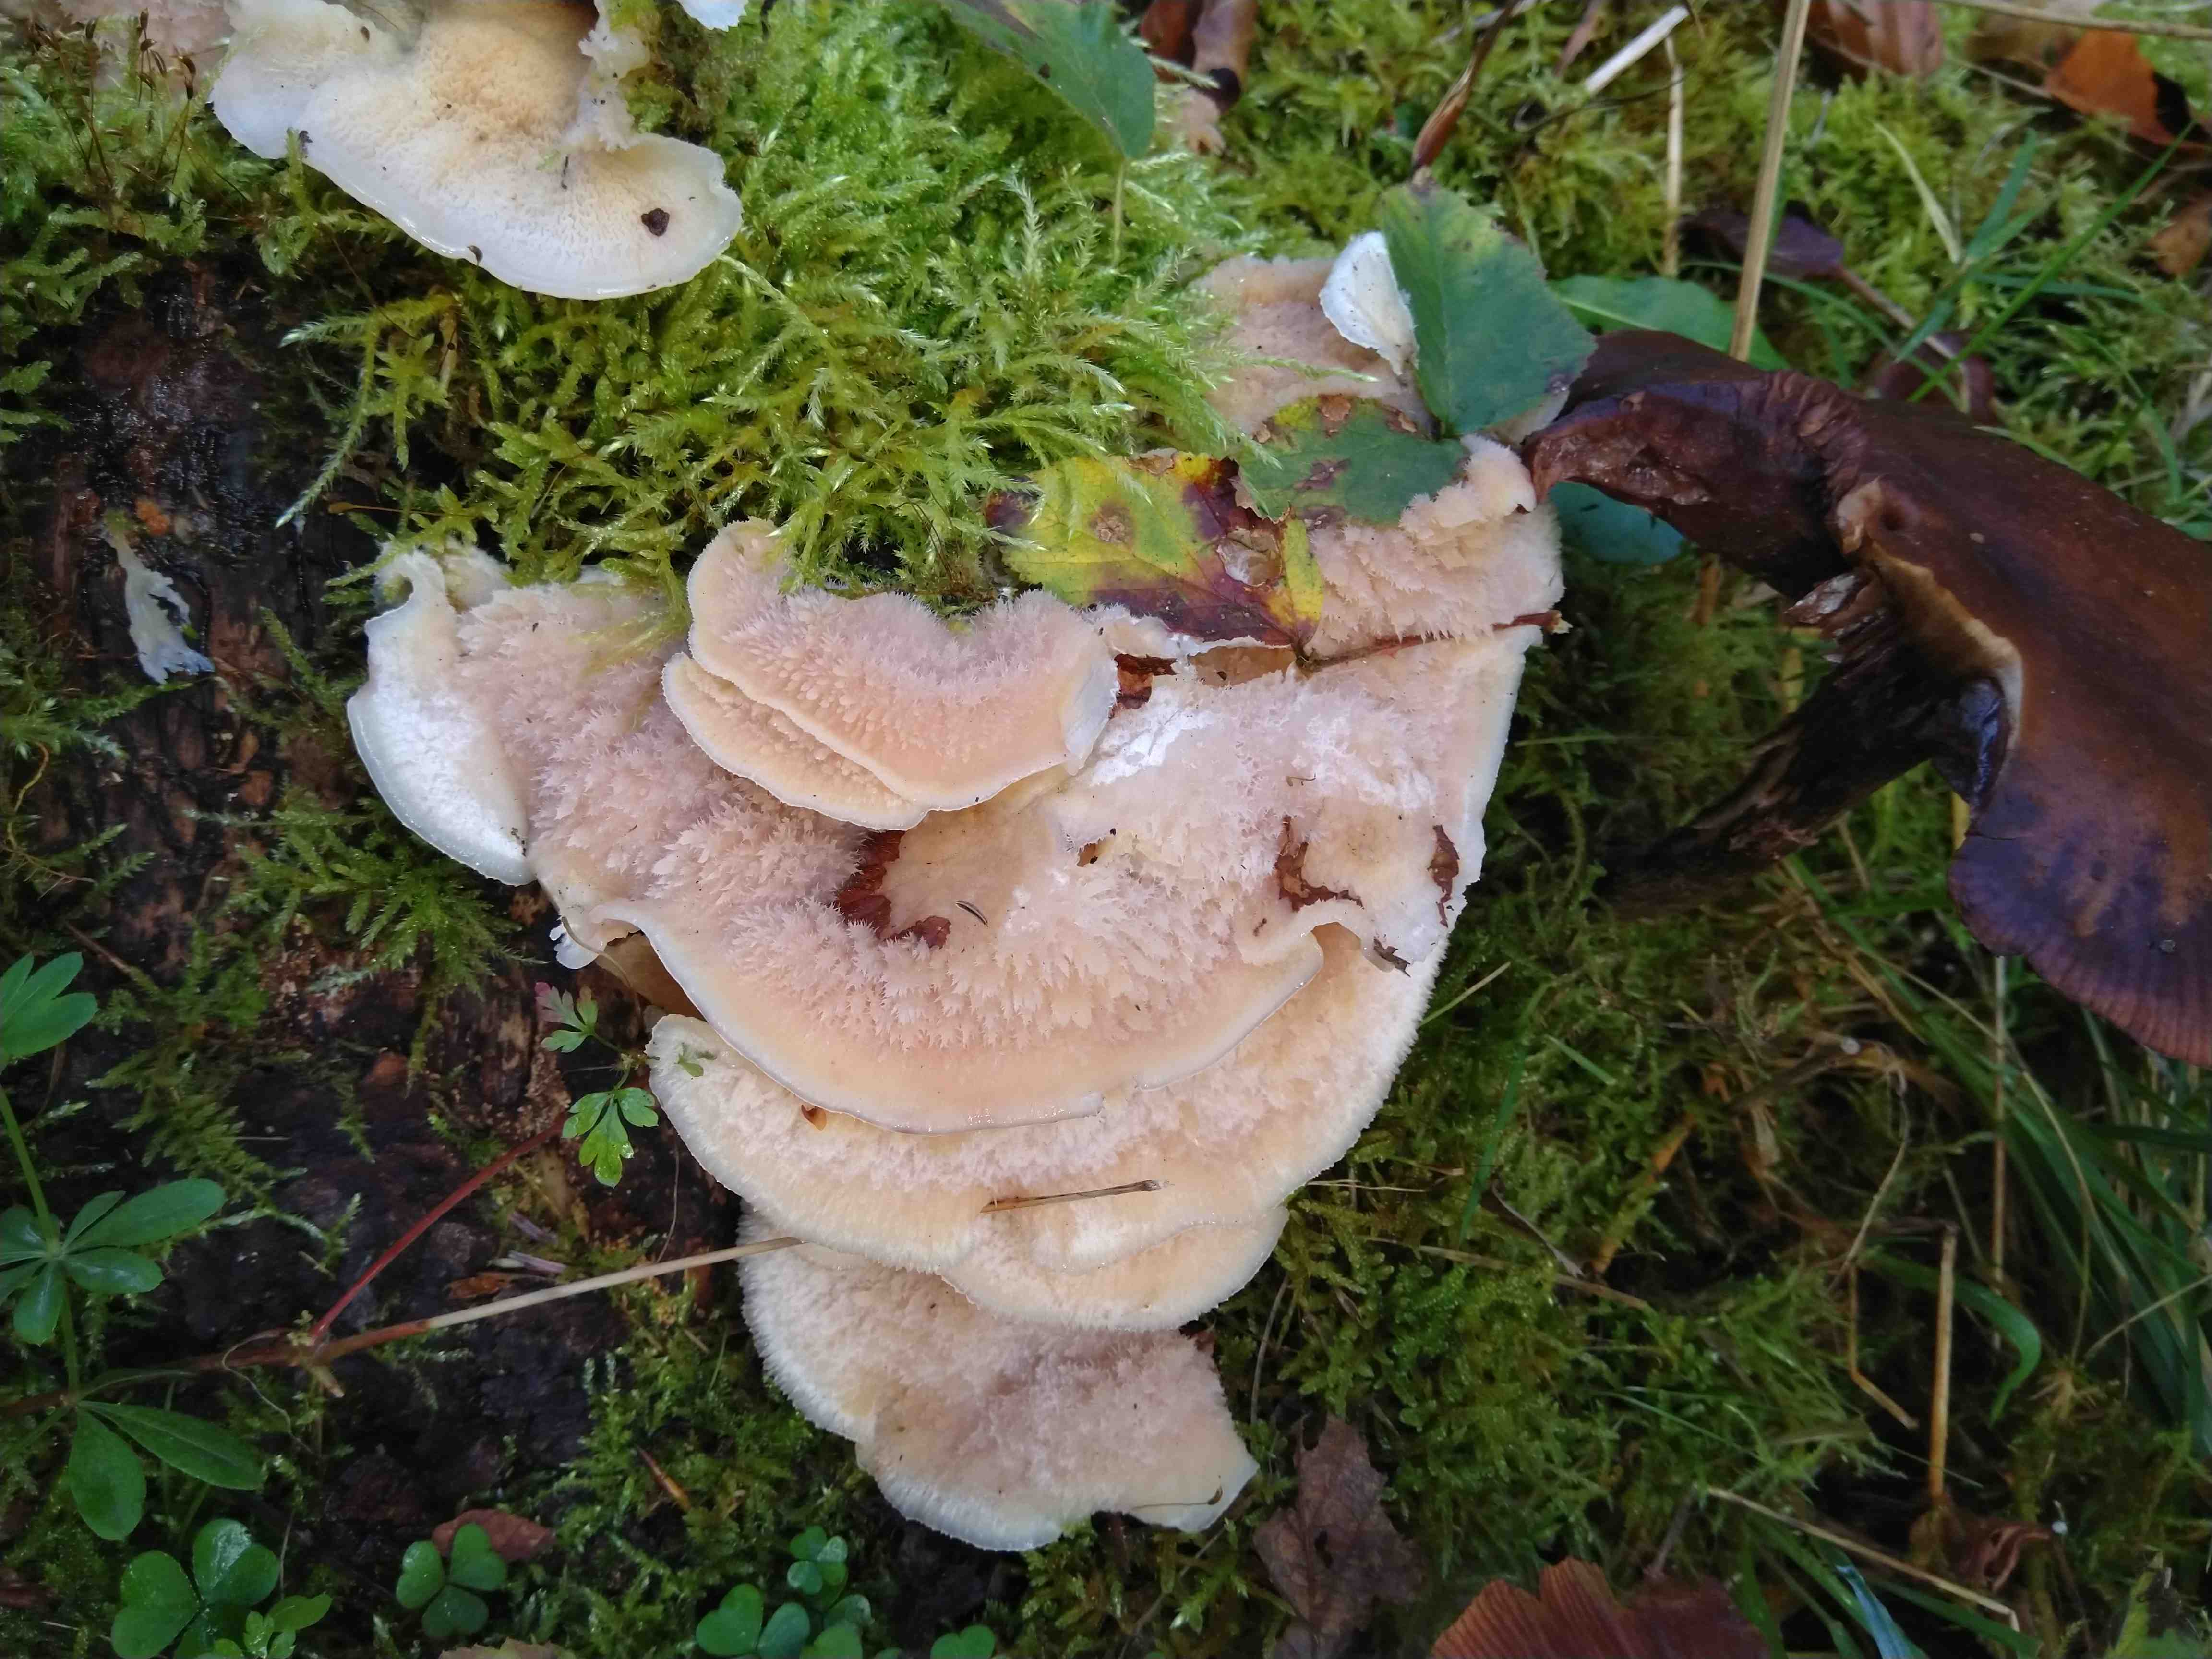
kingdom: Fungi
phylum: Basidiomycota
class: Agaricomycetes
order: Polyporales
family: Meruliaceae
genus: Phlebia
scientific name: Phlebia tremellosa
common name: bævrende åresvamp
